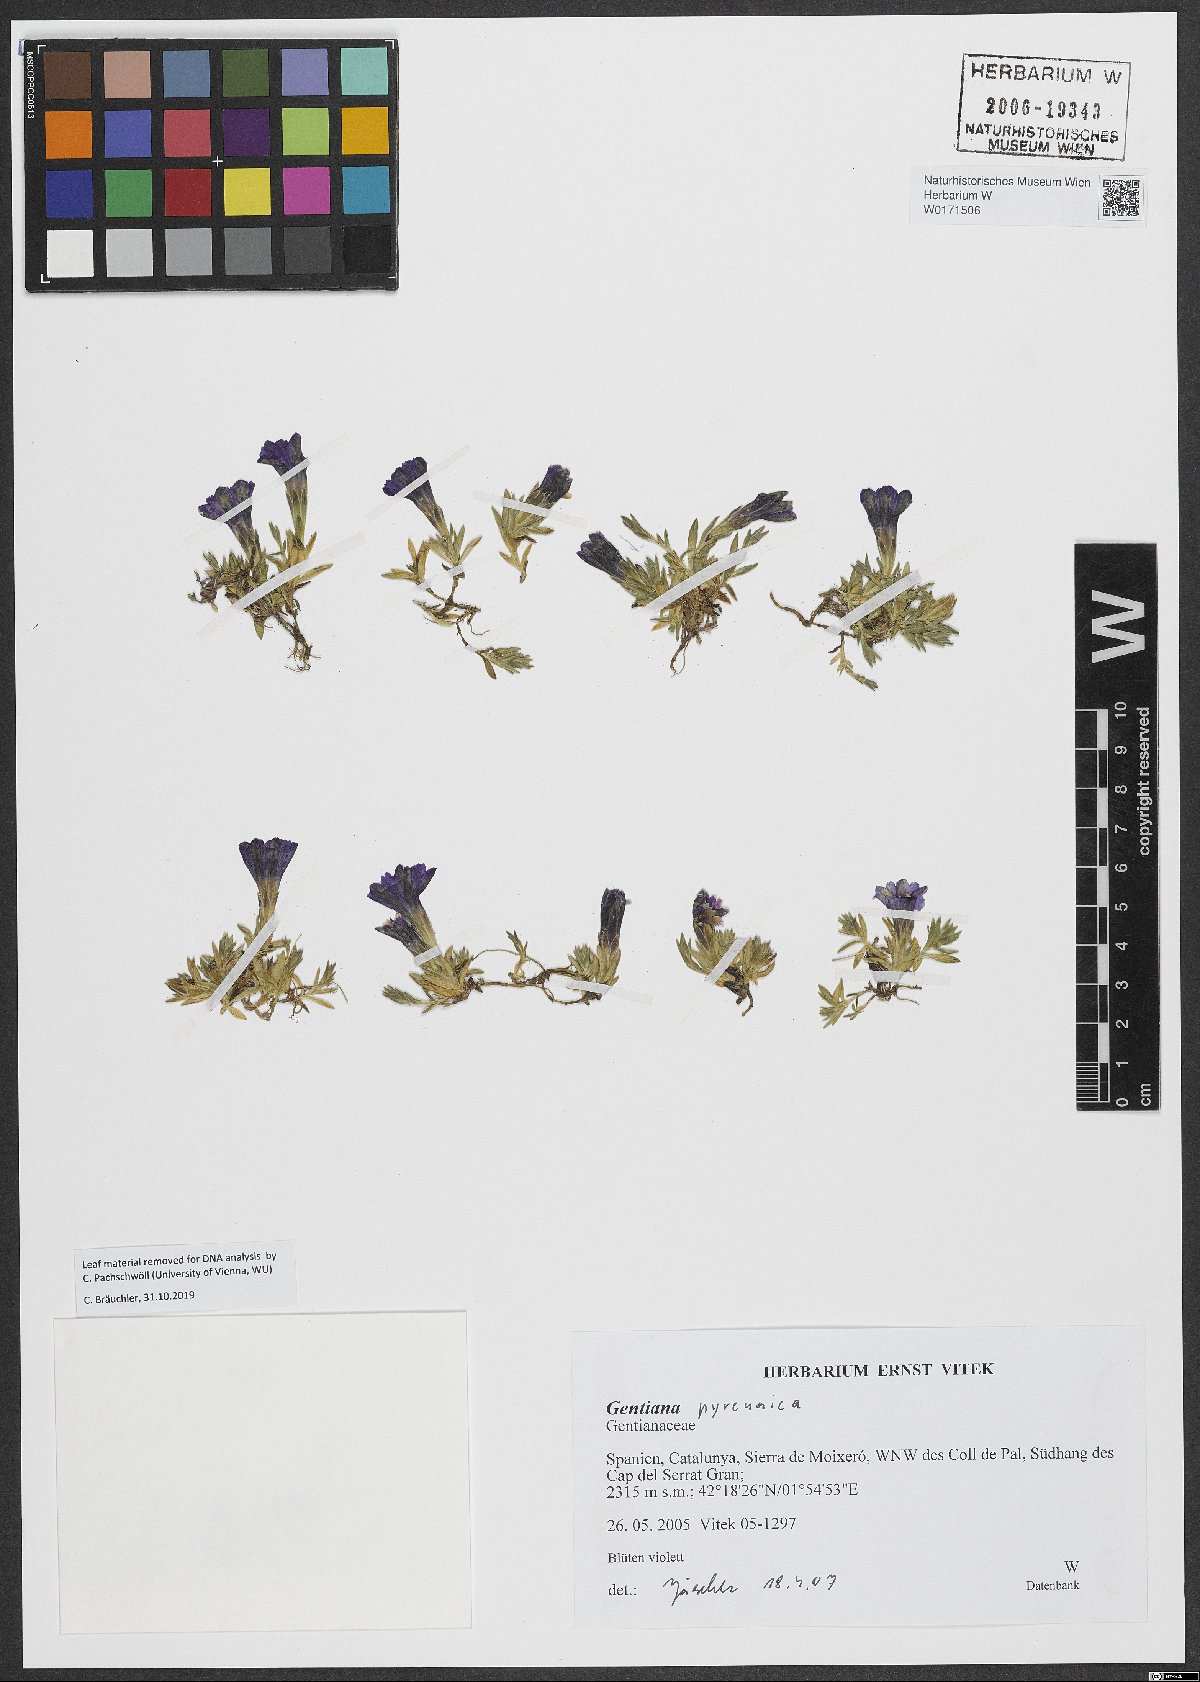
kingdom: Plantae
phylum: Tracheophyta
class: Magnoliopsida
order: Gentianales
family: Gentianaceae
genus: Gentiana
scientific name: Gentiana pyrenaica
